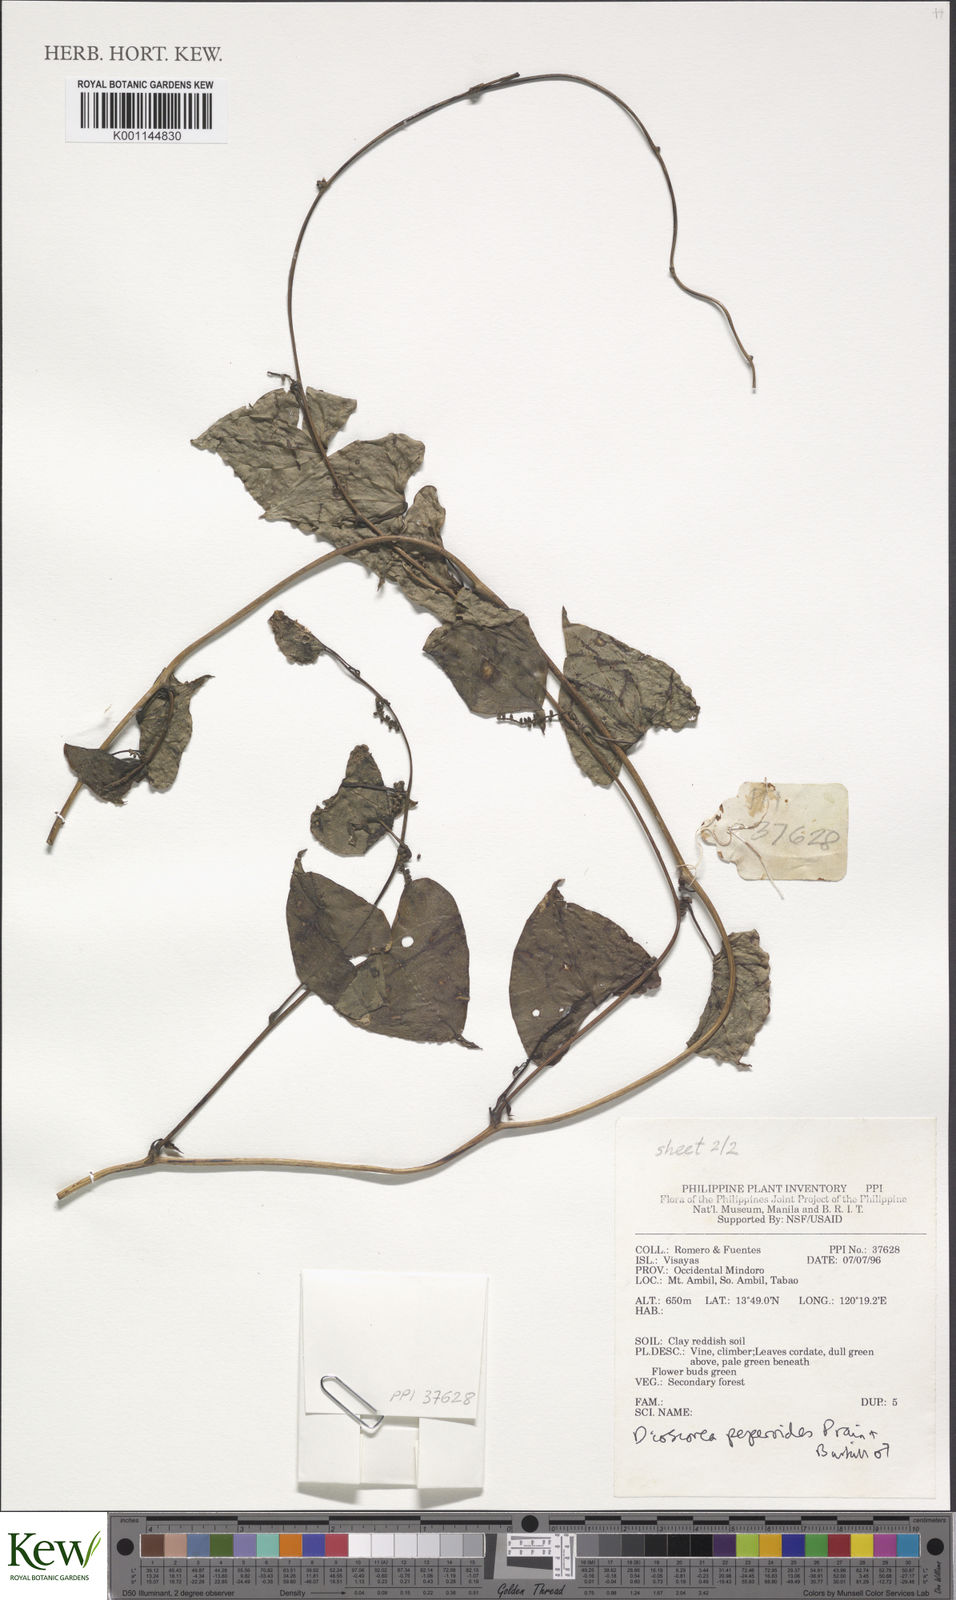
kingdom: Plantae
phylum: Tracheophyta
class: Liliopsida
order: Dioscoreales
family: Dioscoreaceae
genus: Dioscorea
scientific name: Dioscorea peperoides
